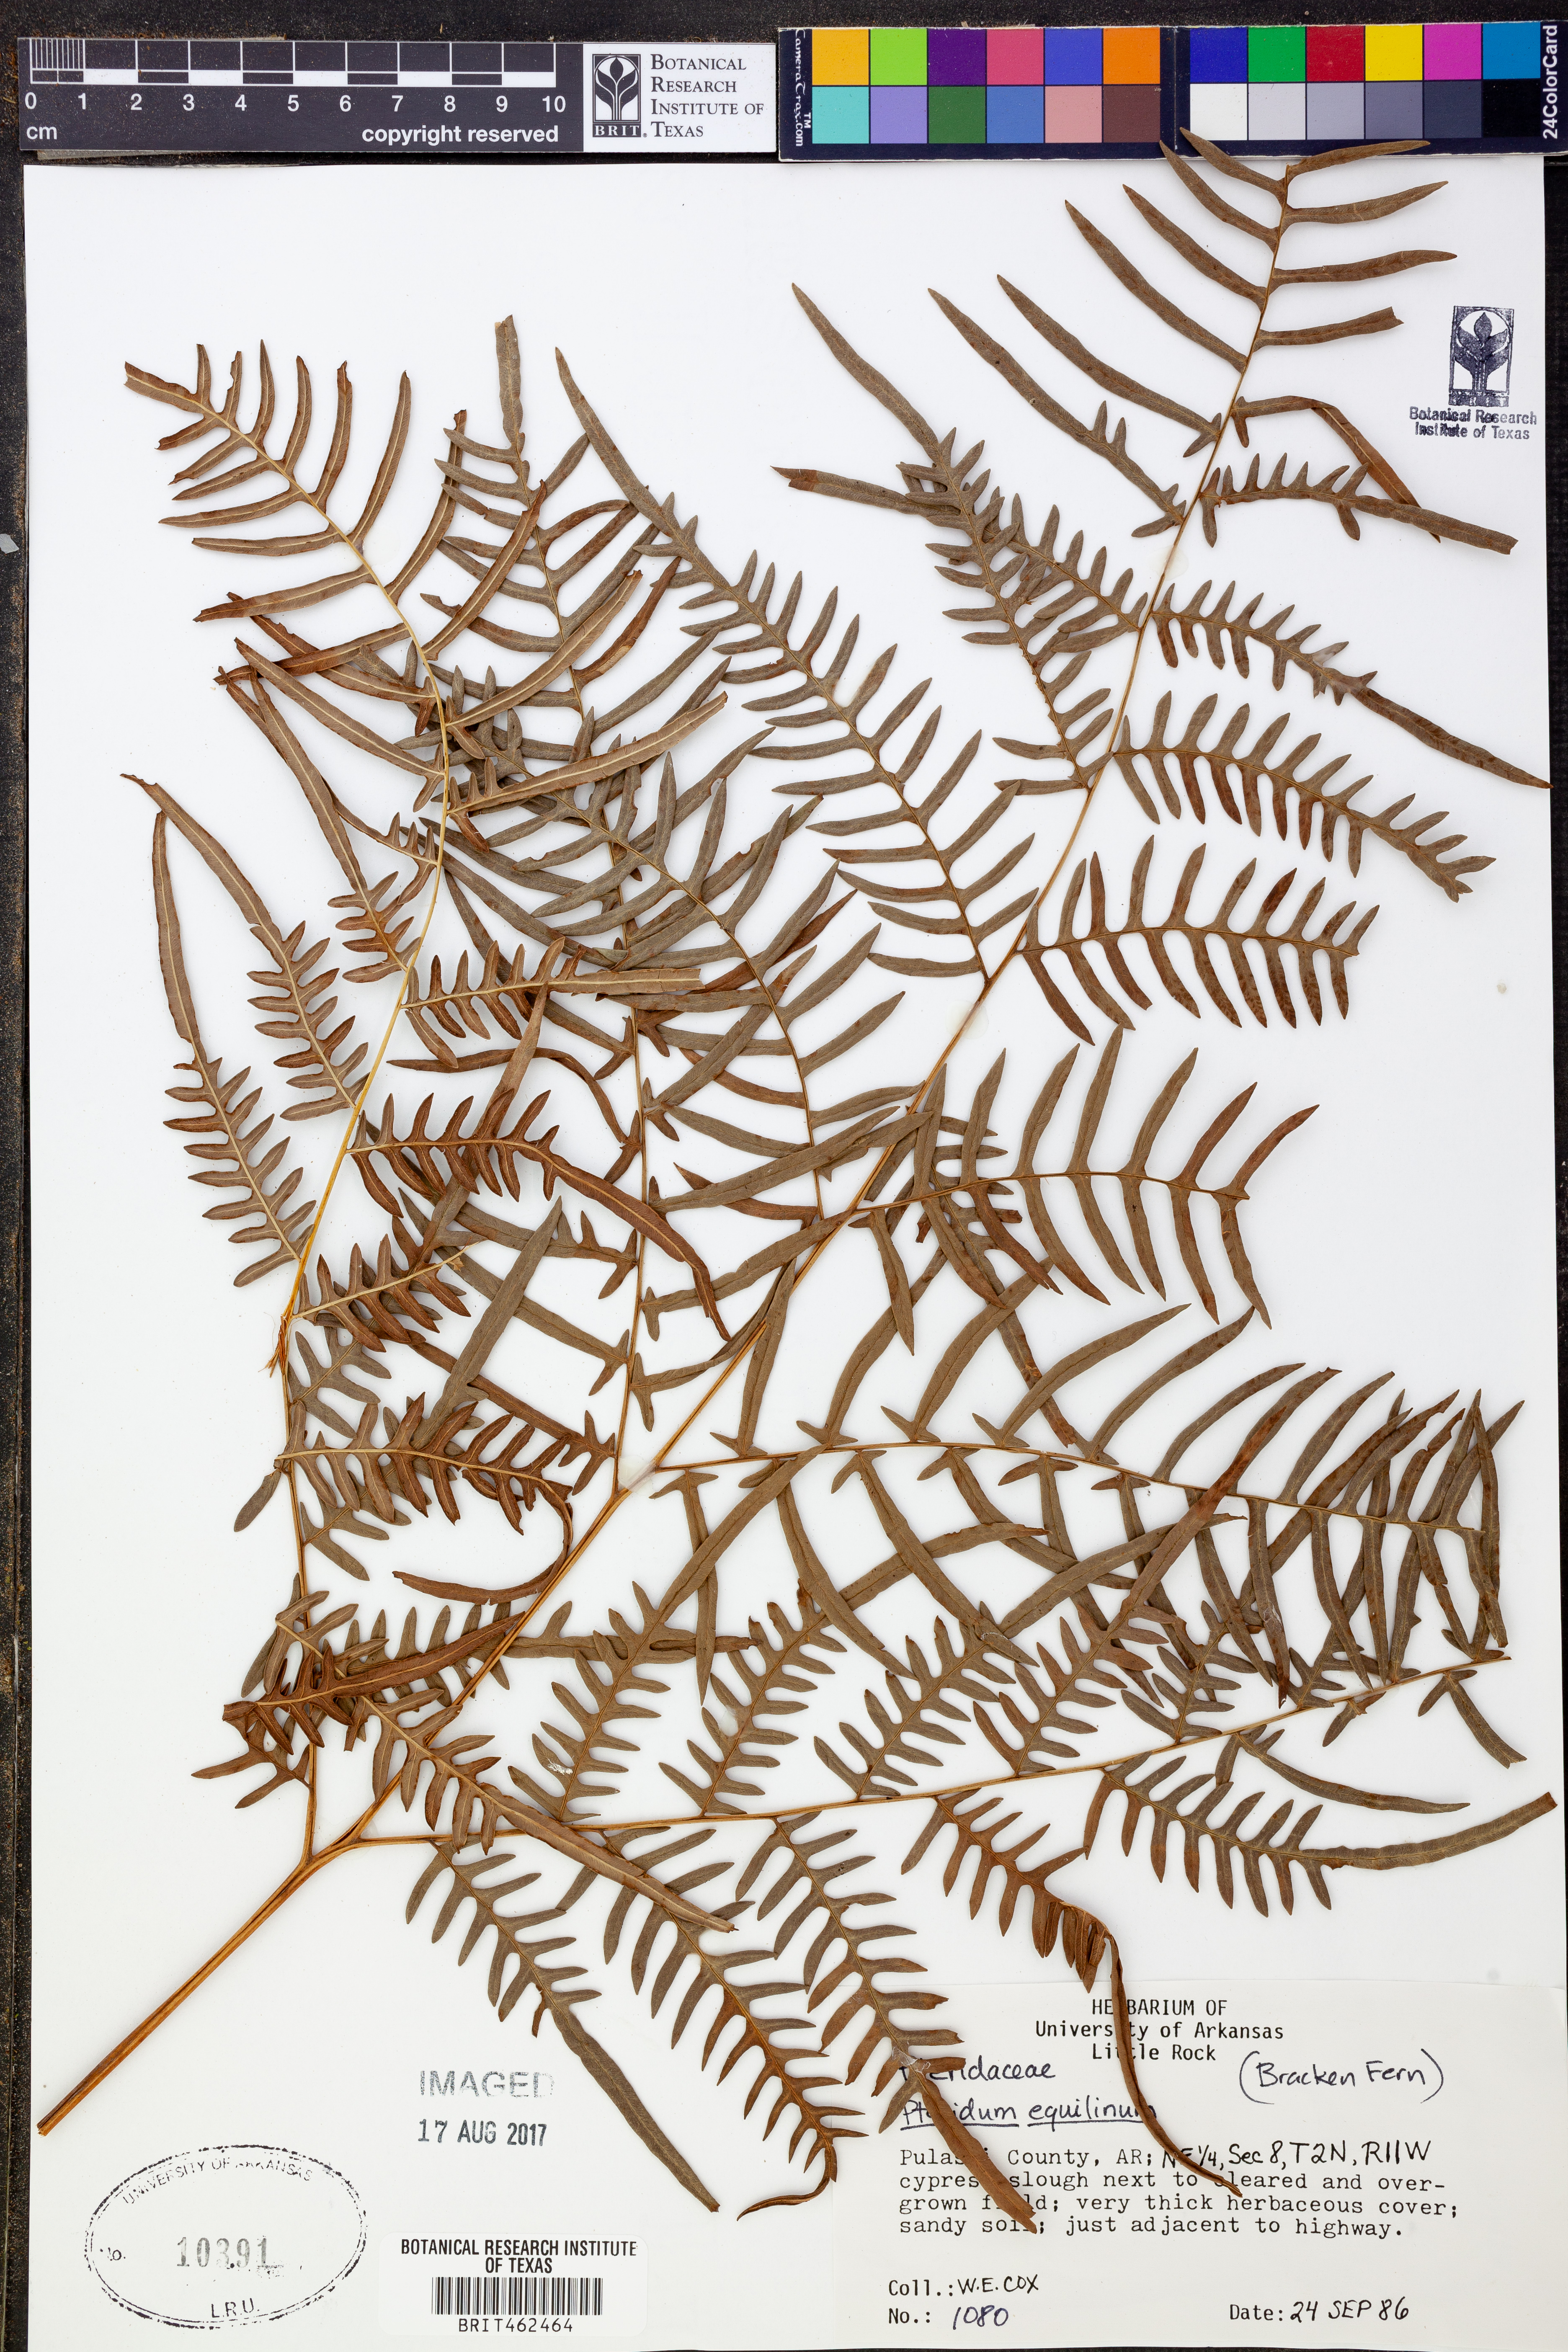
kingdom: Plantae
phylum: Tracheophyta
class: Polypodiopsida
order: Polypodiales
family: Dennstaedtiaceae
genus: Pteridium
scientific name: Pteridium aquilinum
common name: Bracken
